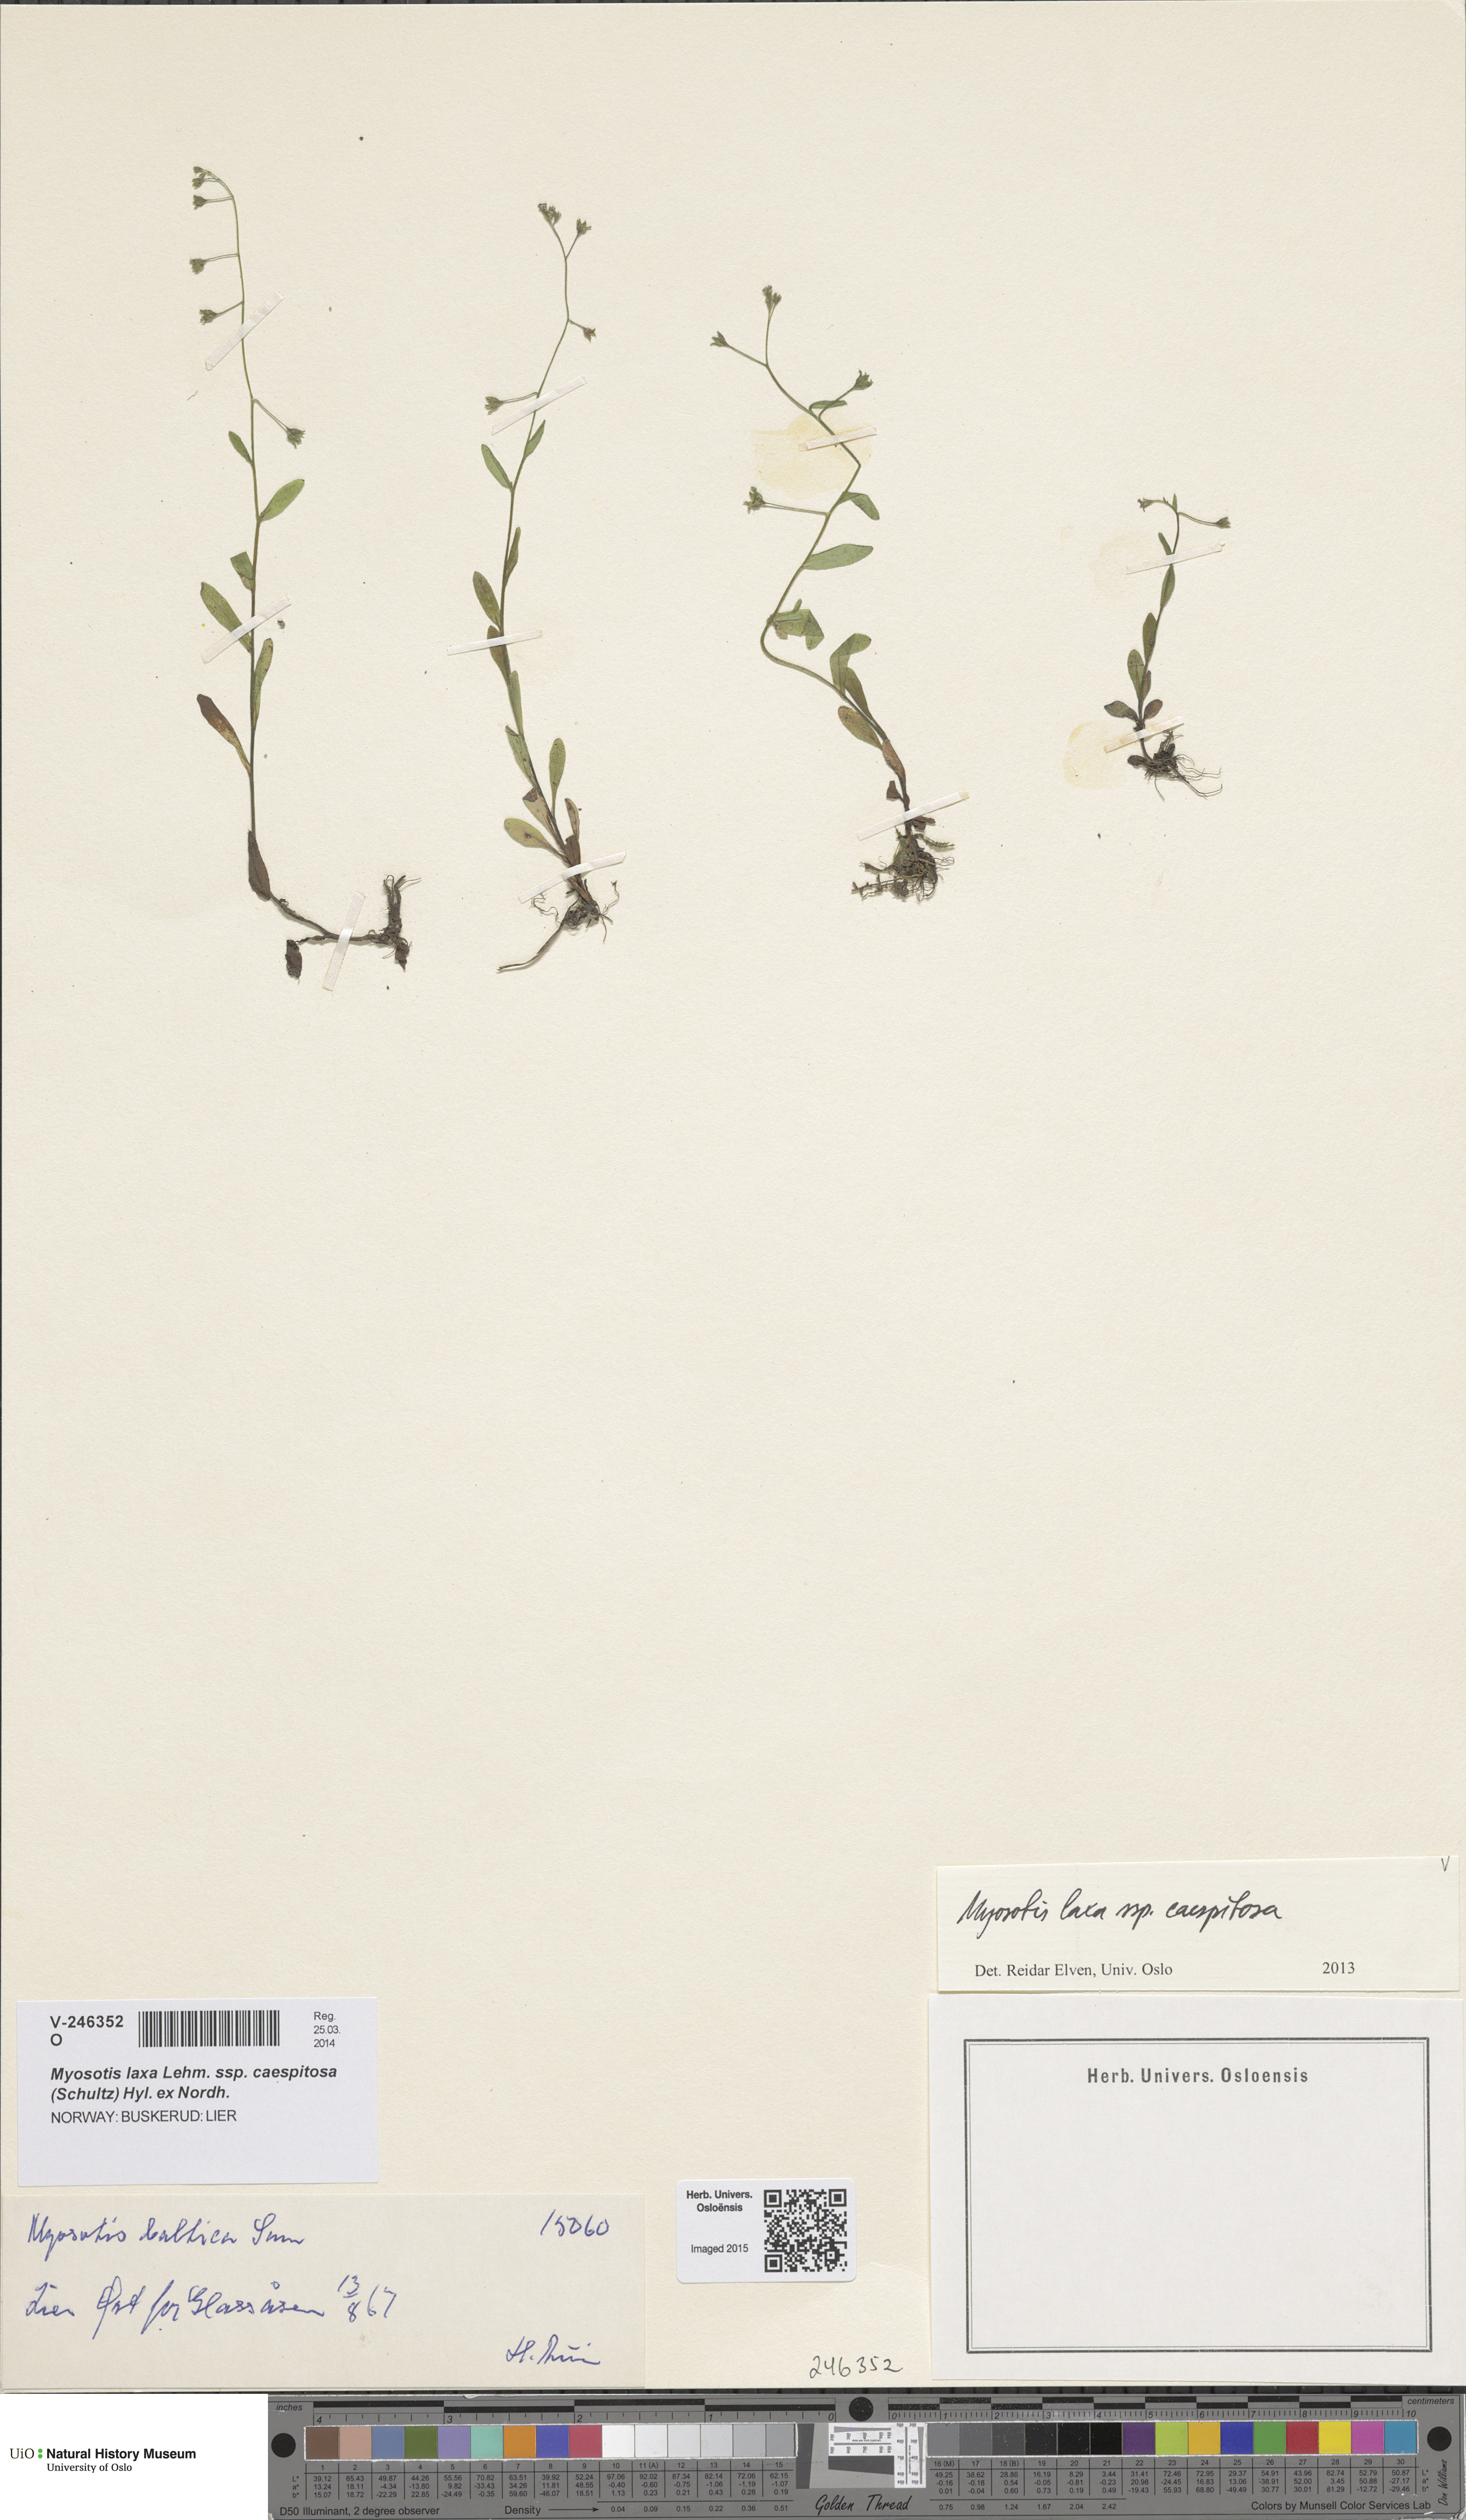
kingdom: Plantae
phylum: Tracheophyta
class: Magnoliopsida
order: Boraginales
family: Boraginaceae
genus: Myosotis
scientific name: Myosotis laxa
